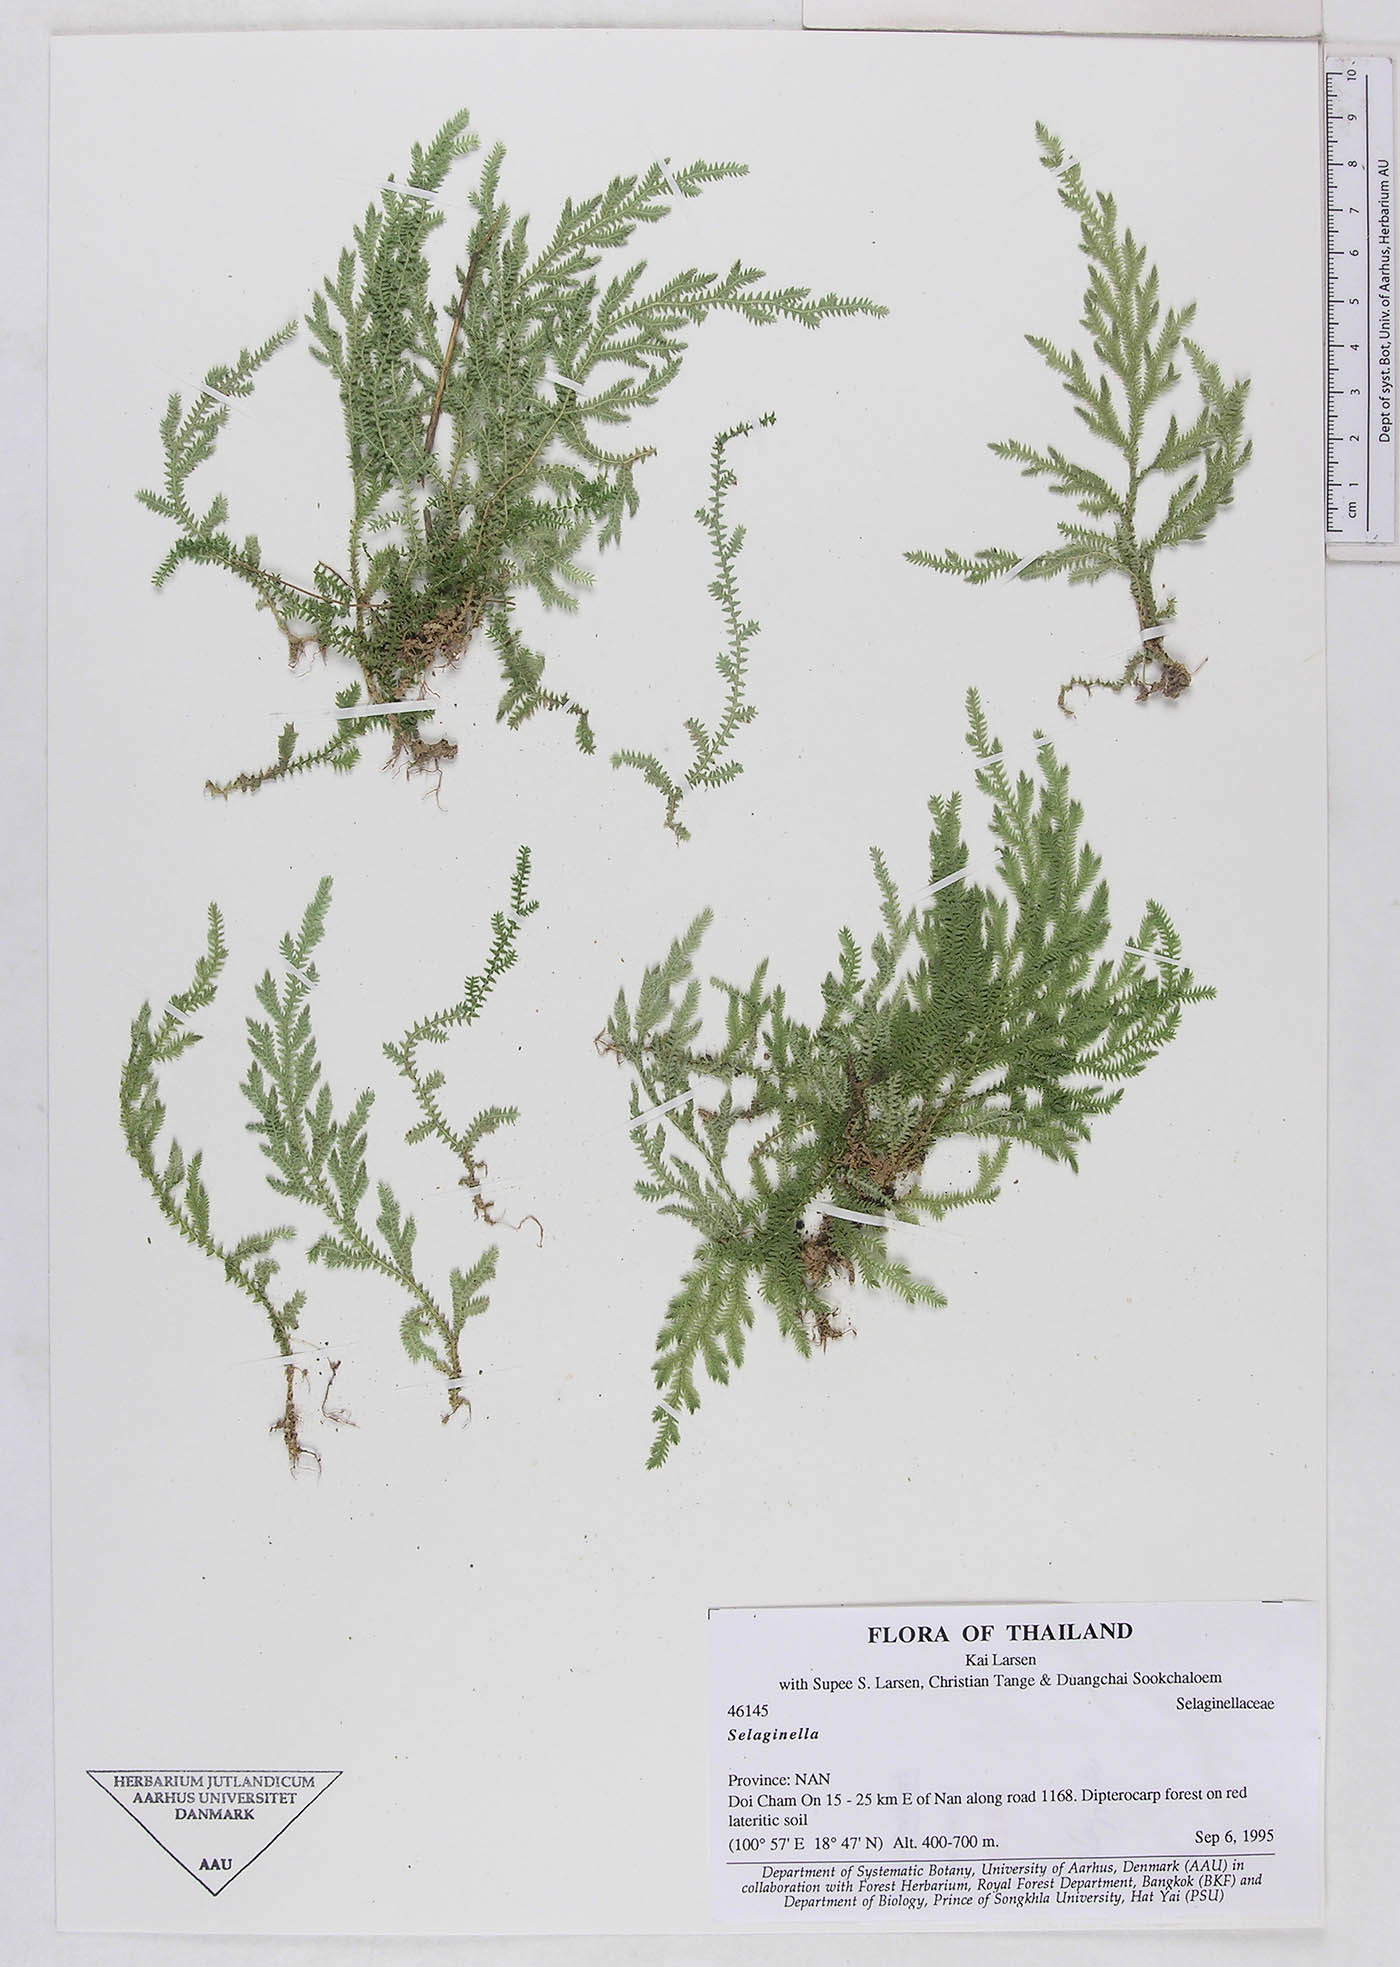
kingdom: Plantae
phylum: Tracheophyta
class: Lycopodiopsida
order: Selaginellales
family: Selaginellaceae
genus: Selaginella
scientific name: Selaginella
